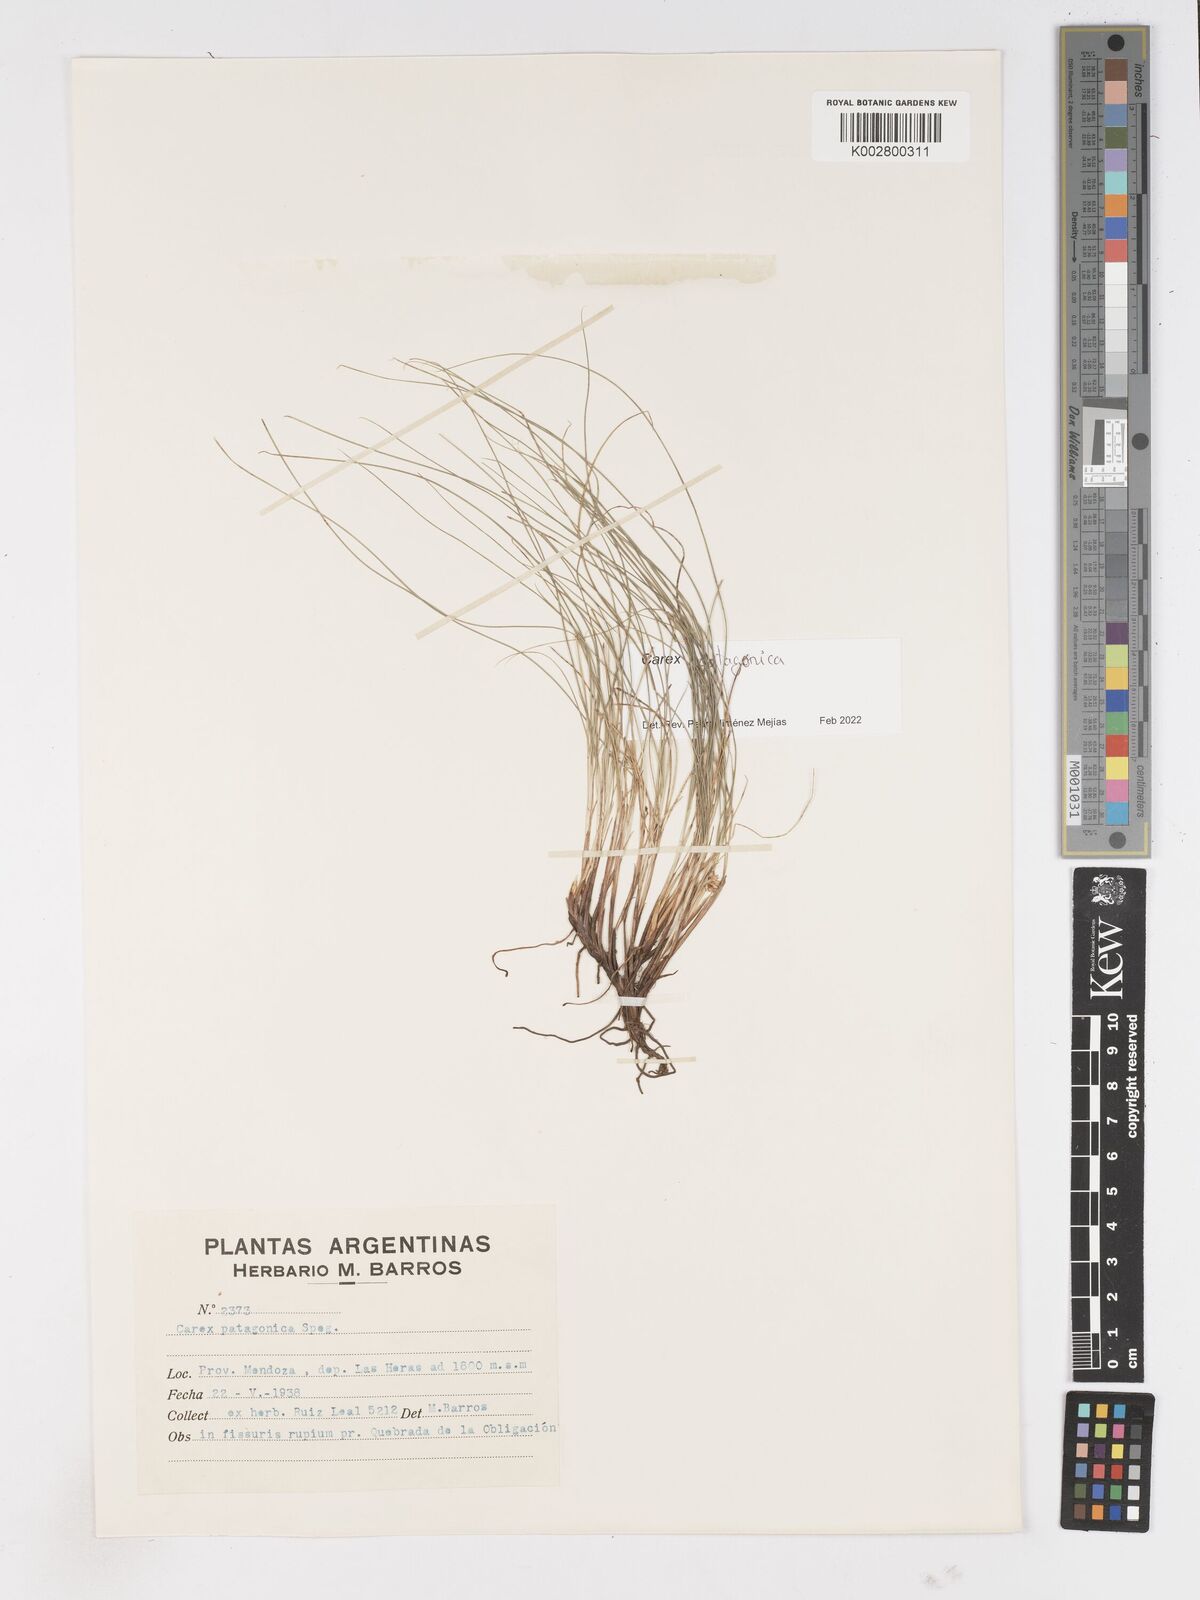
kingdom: Plantae
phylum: Tracheophyta
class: Liliopsida
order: Poales
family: Cyperaceae
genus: Carex
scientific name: Carex patagonica
